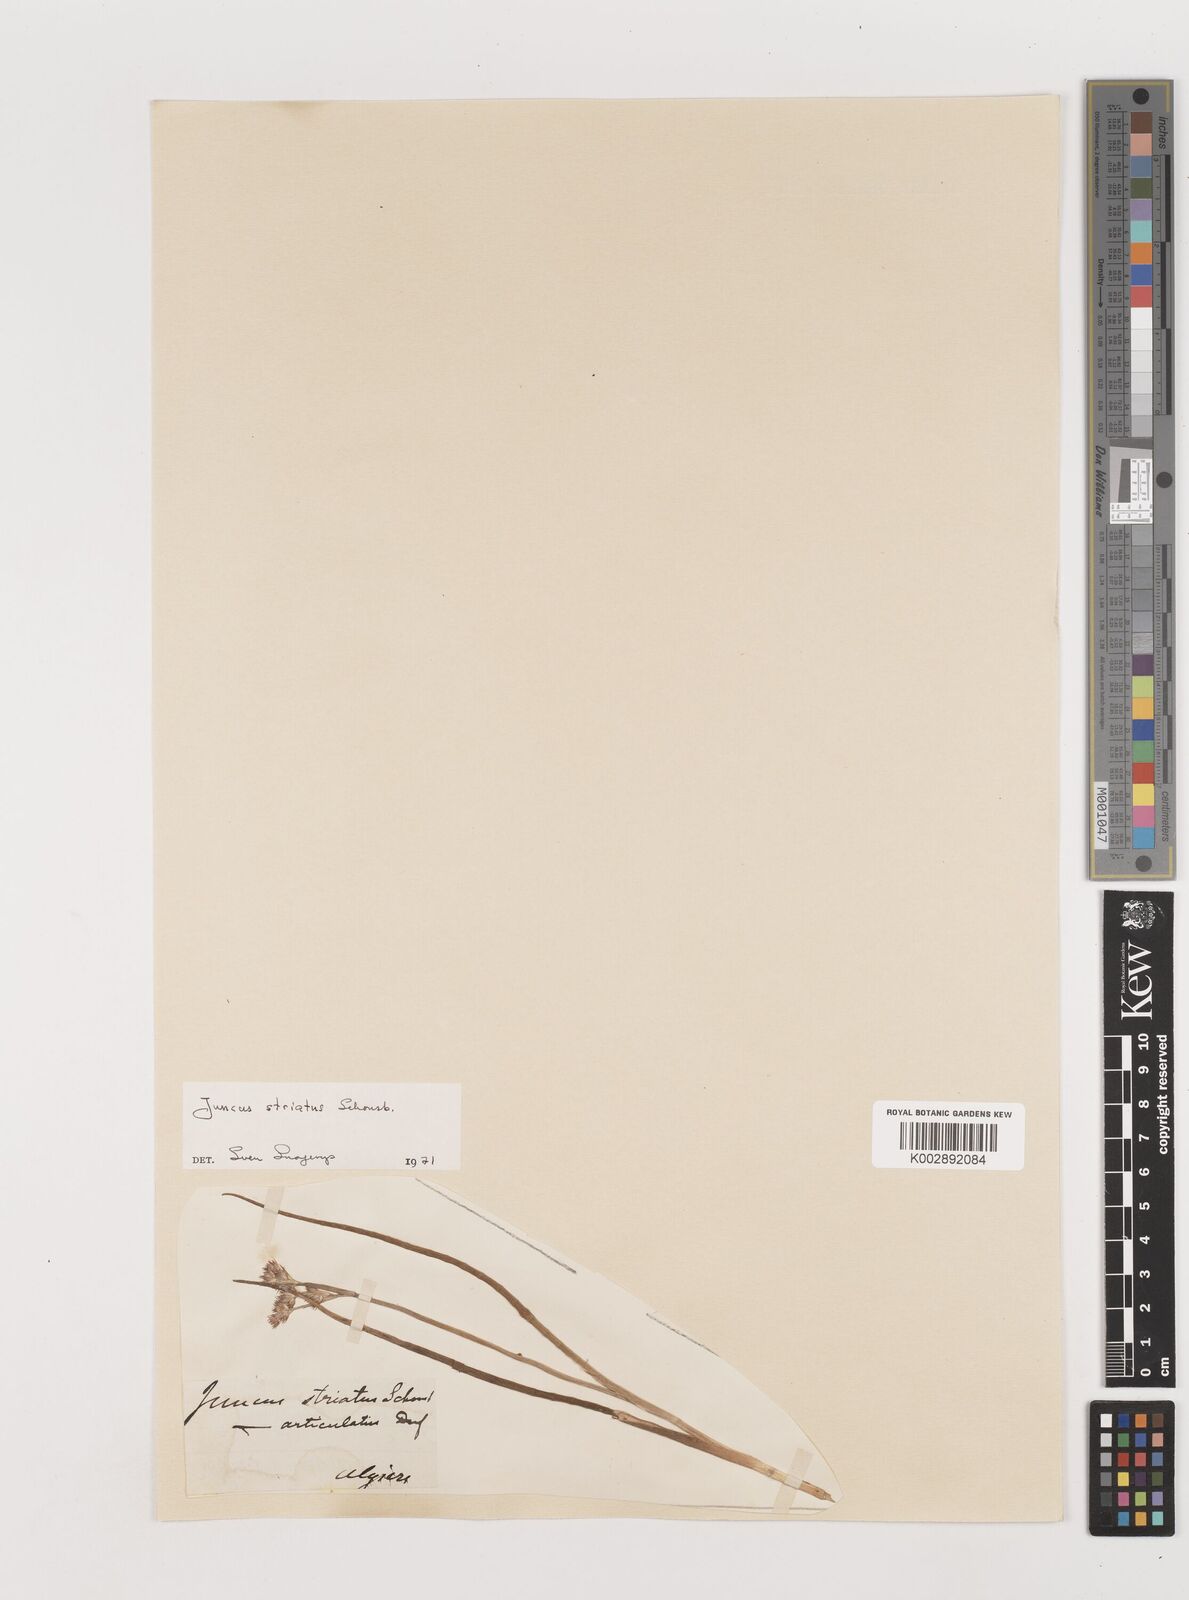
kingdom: Plantae
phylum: Tracheophyta
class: Liliopsida
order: Poales
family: Juncaceae
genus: Juncus
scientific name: Juncus striatus
